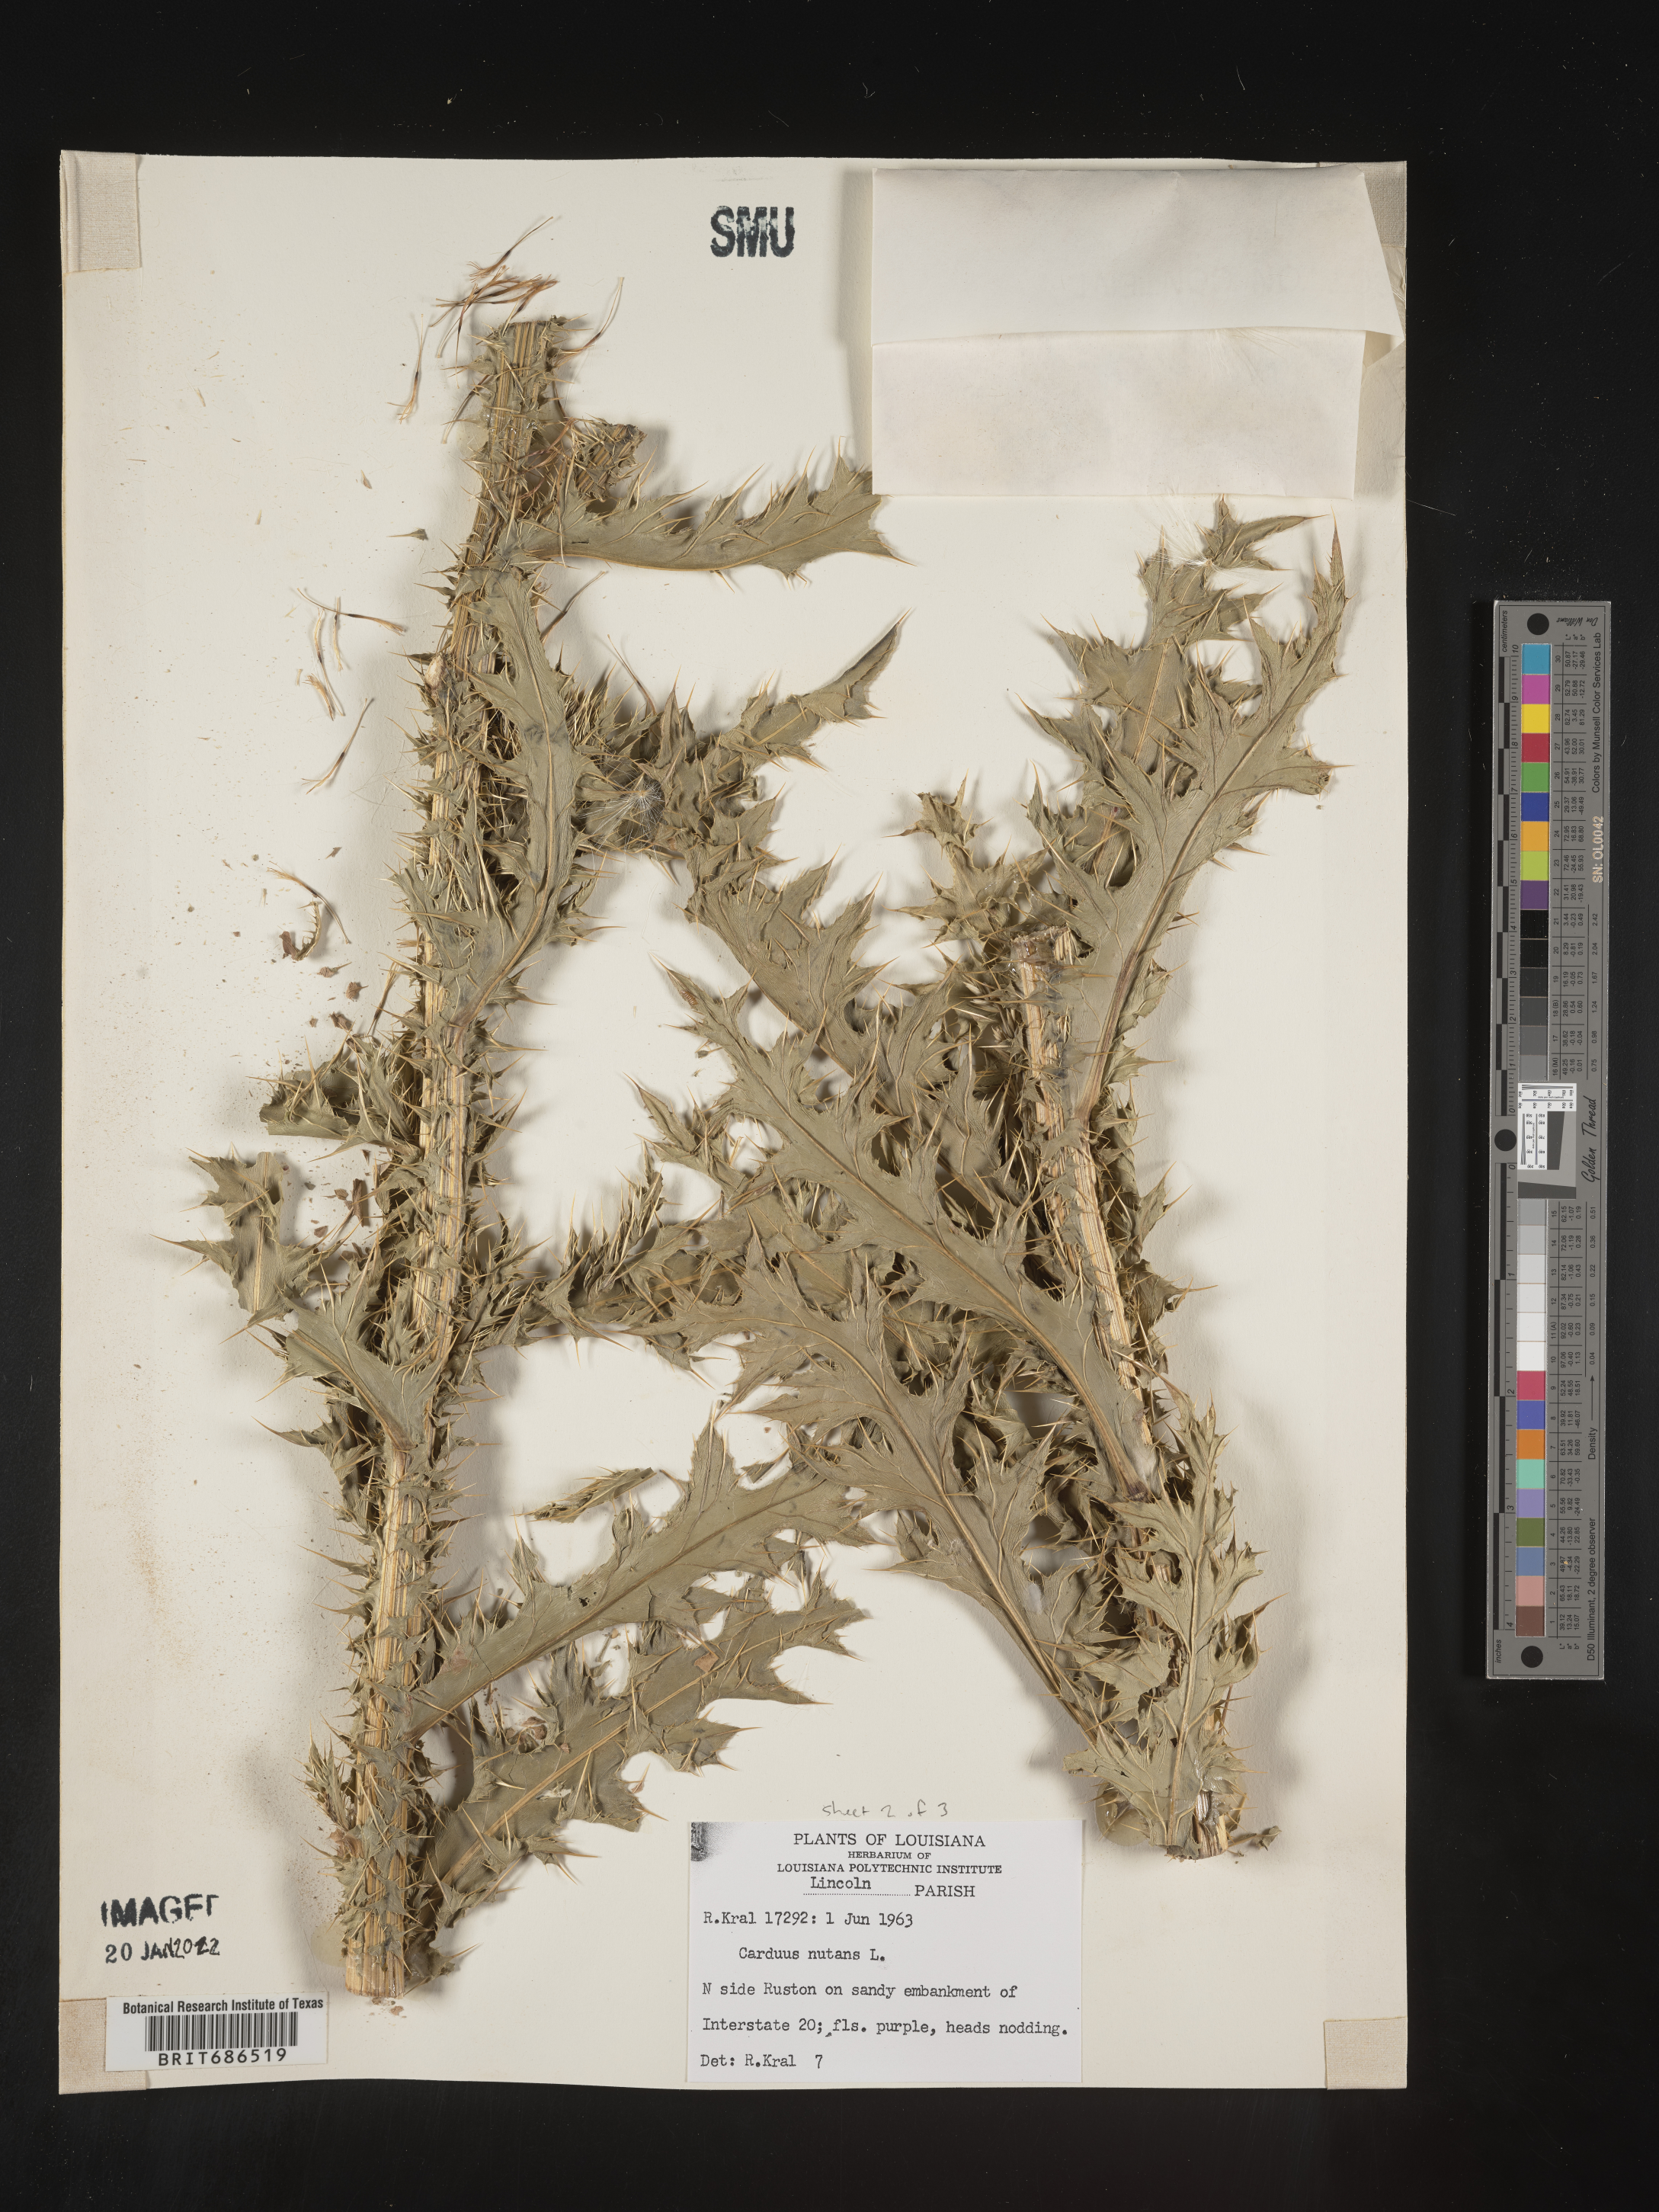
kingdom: Plantae
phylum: Tracheophyta
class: Magnoliopsida
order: Asterales
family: Asteraceae
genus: Carduus
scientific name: Carduus nutans
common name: Musk thistle
